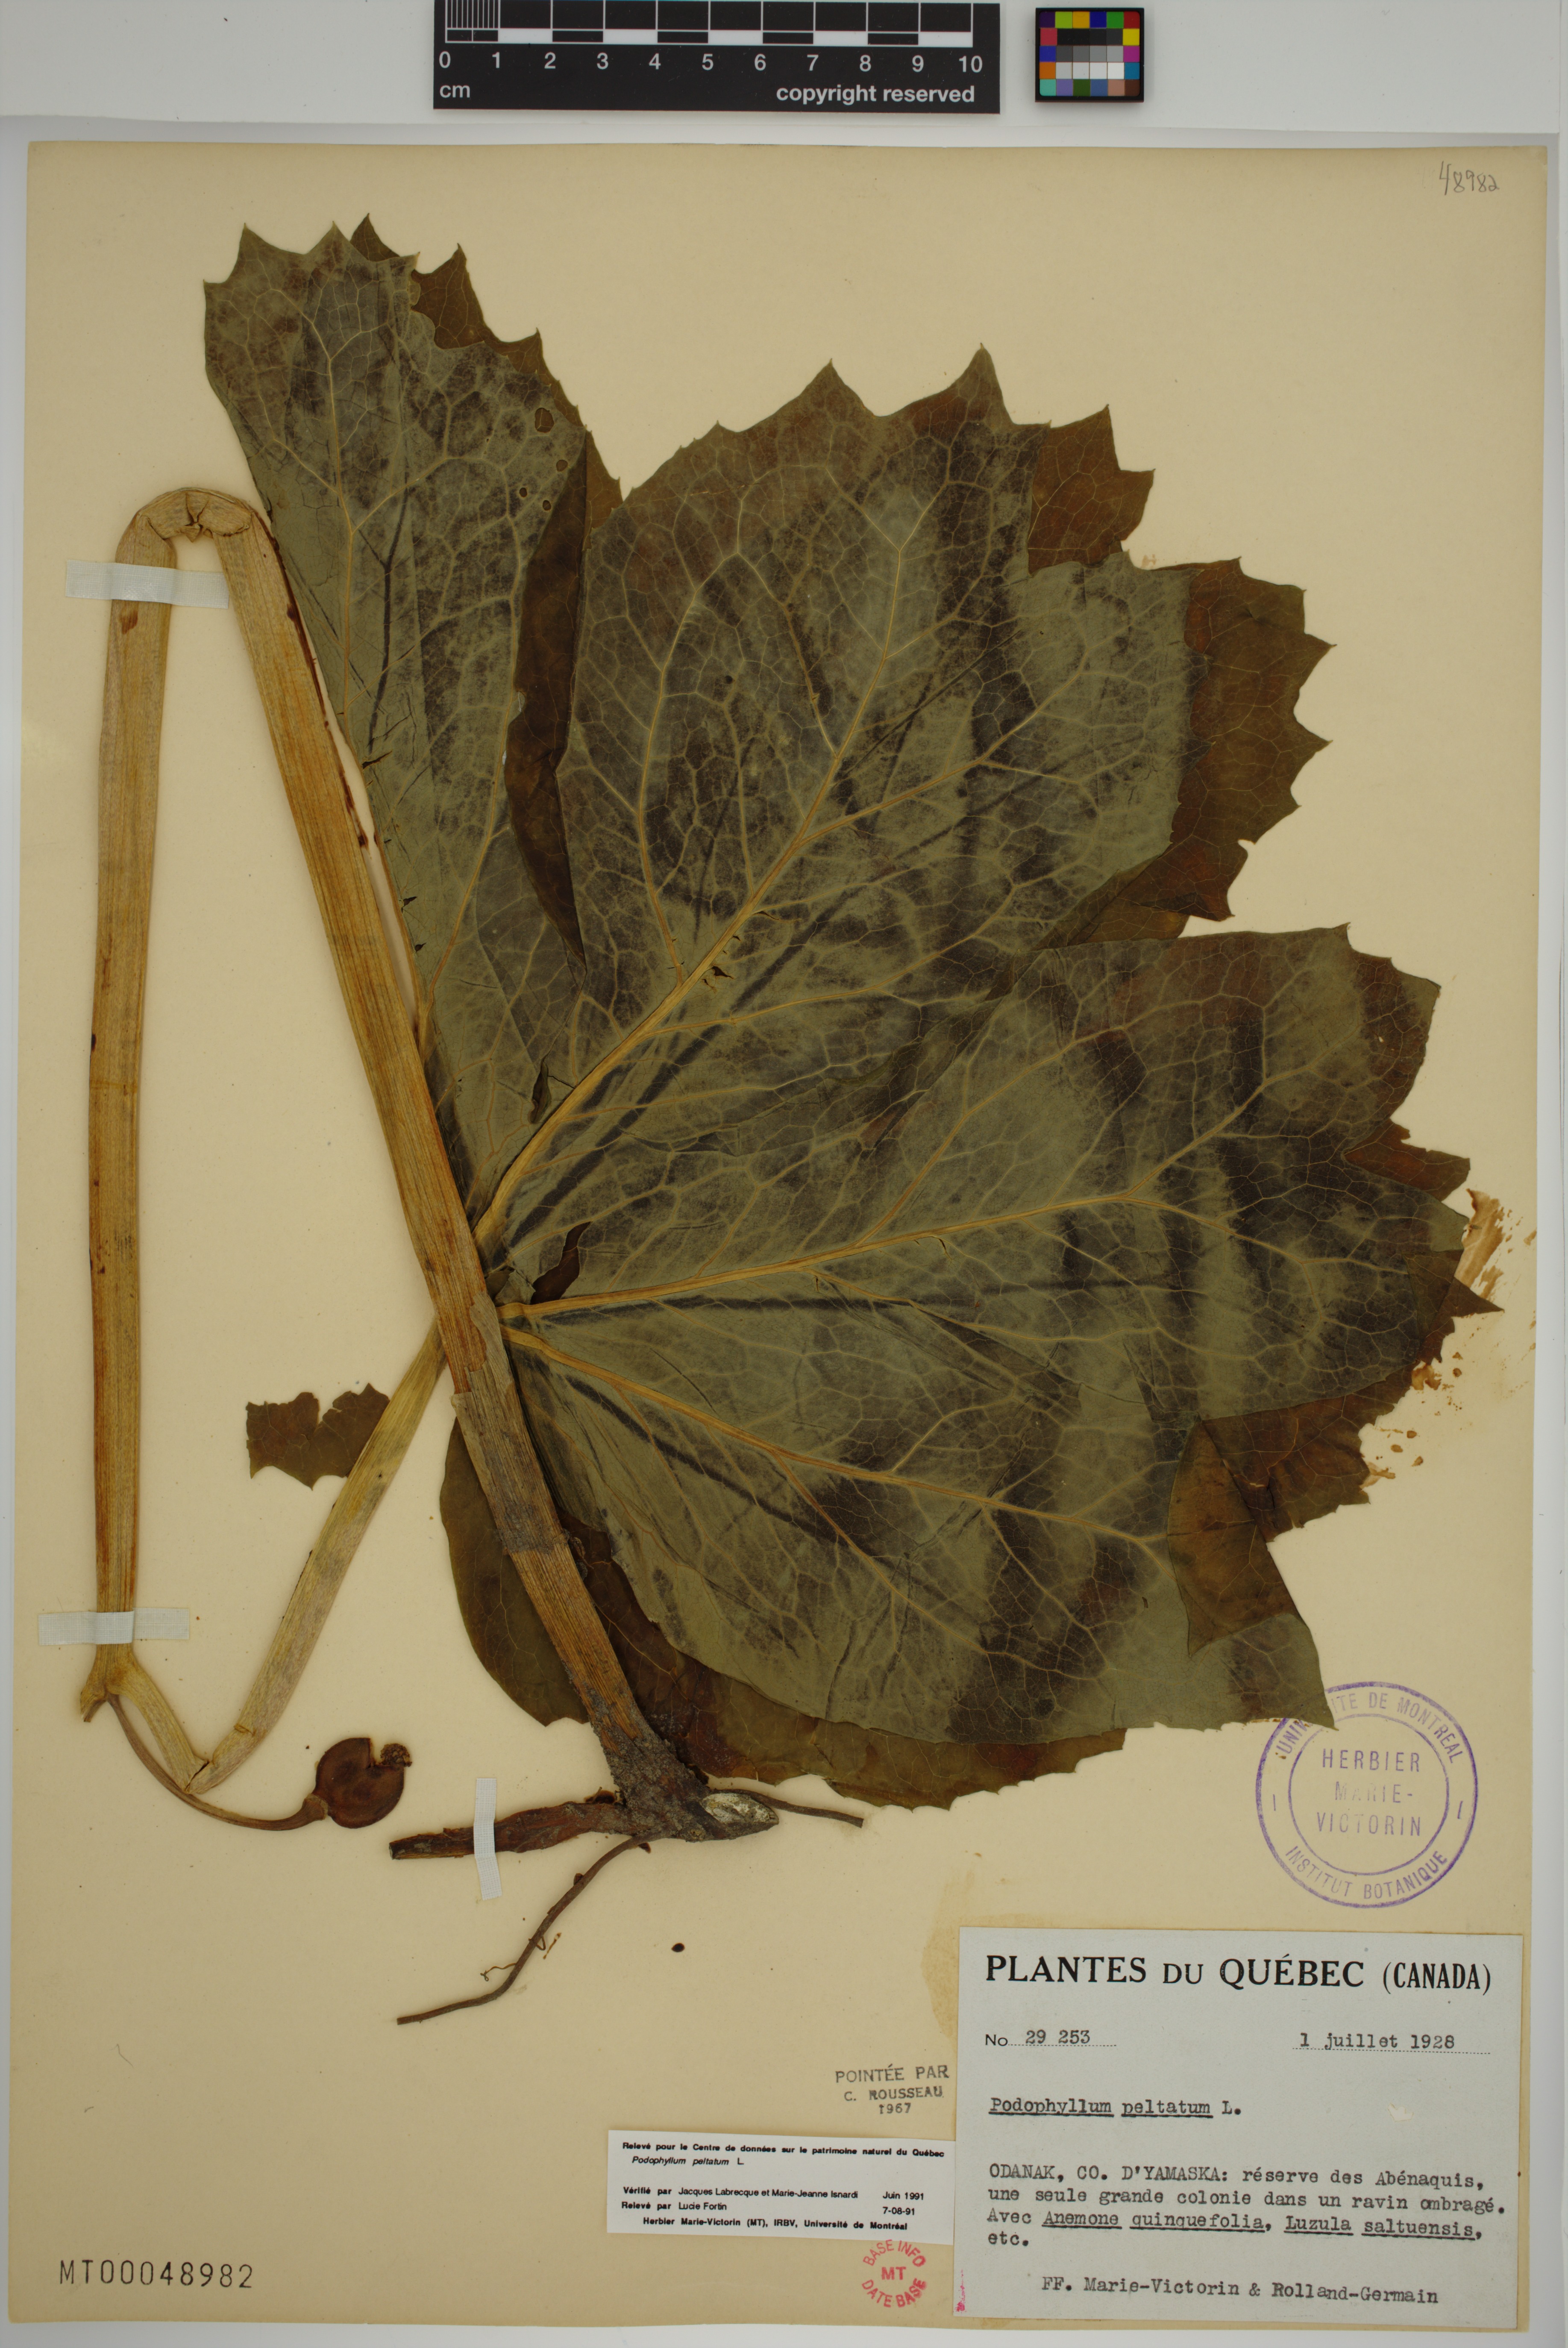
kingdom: Plantae
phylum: Tracheophyta
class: Magnoliopsida
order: Ranunculales
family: Berberidaceae
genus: Podophyllum
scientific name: Podophyllum peltatum
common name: Wild mandrake
